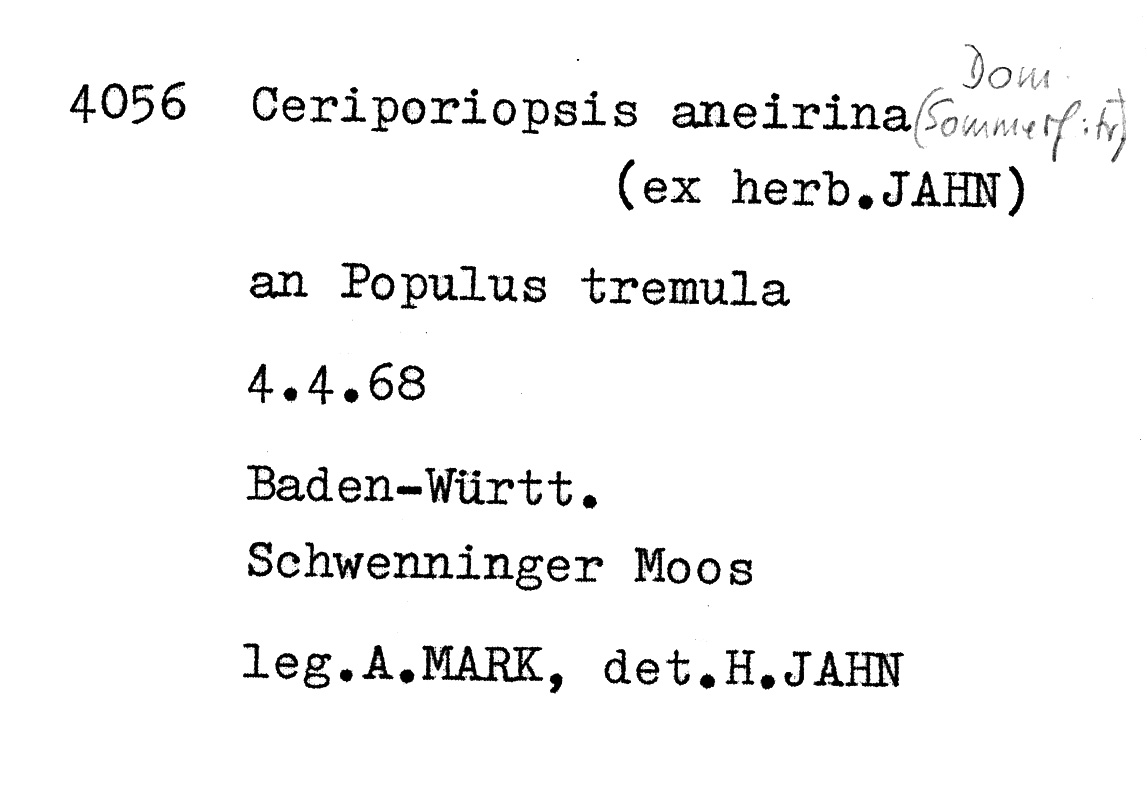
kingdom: Plantae
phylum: Tracheophyta
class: Magnoliopsida
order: Malpighiales
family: Salicaceae
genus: Populus
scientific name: Populus tremula
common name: European aspen
